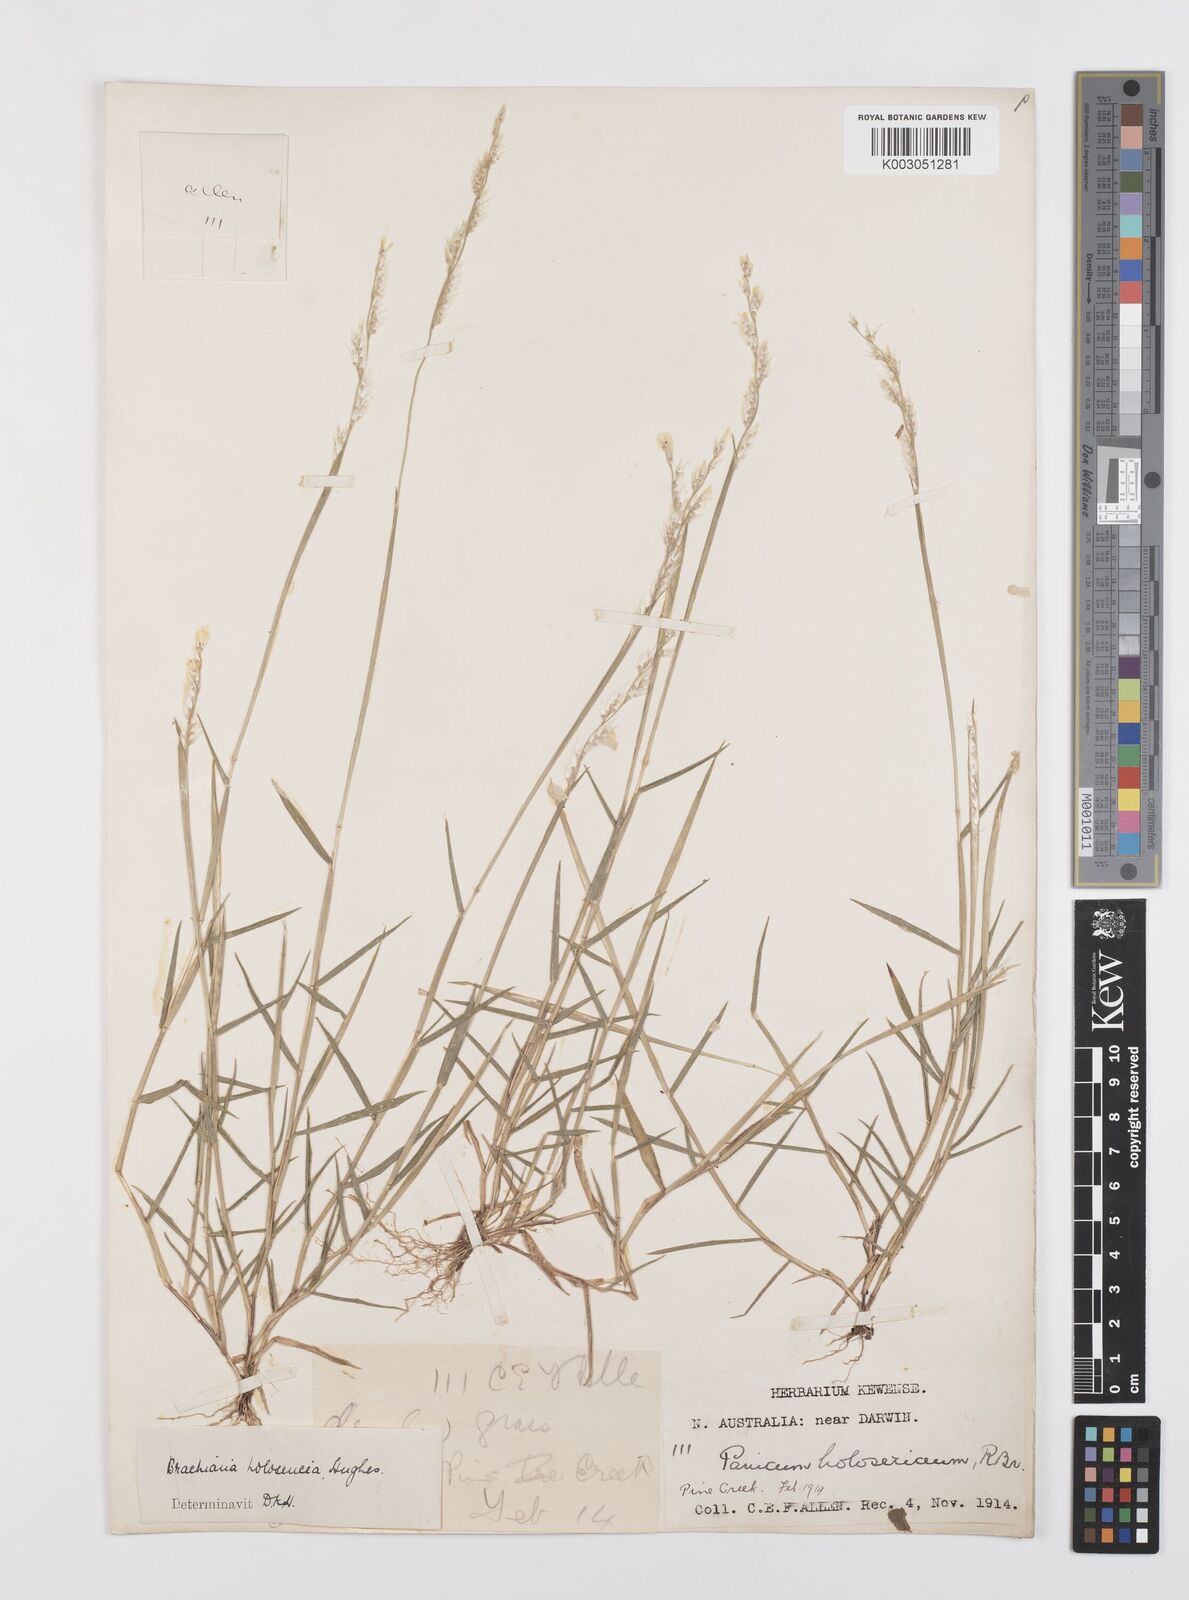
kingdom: Plantae
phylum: Tracheophyta
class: Liliopsida
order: Poales
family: Poaceae
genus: Urochloa
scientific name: Urochloa holosericea
